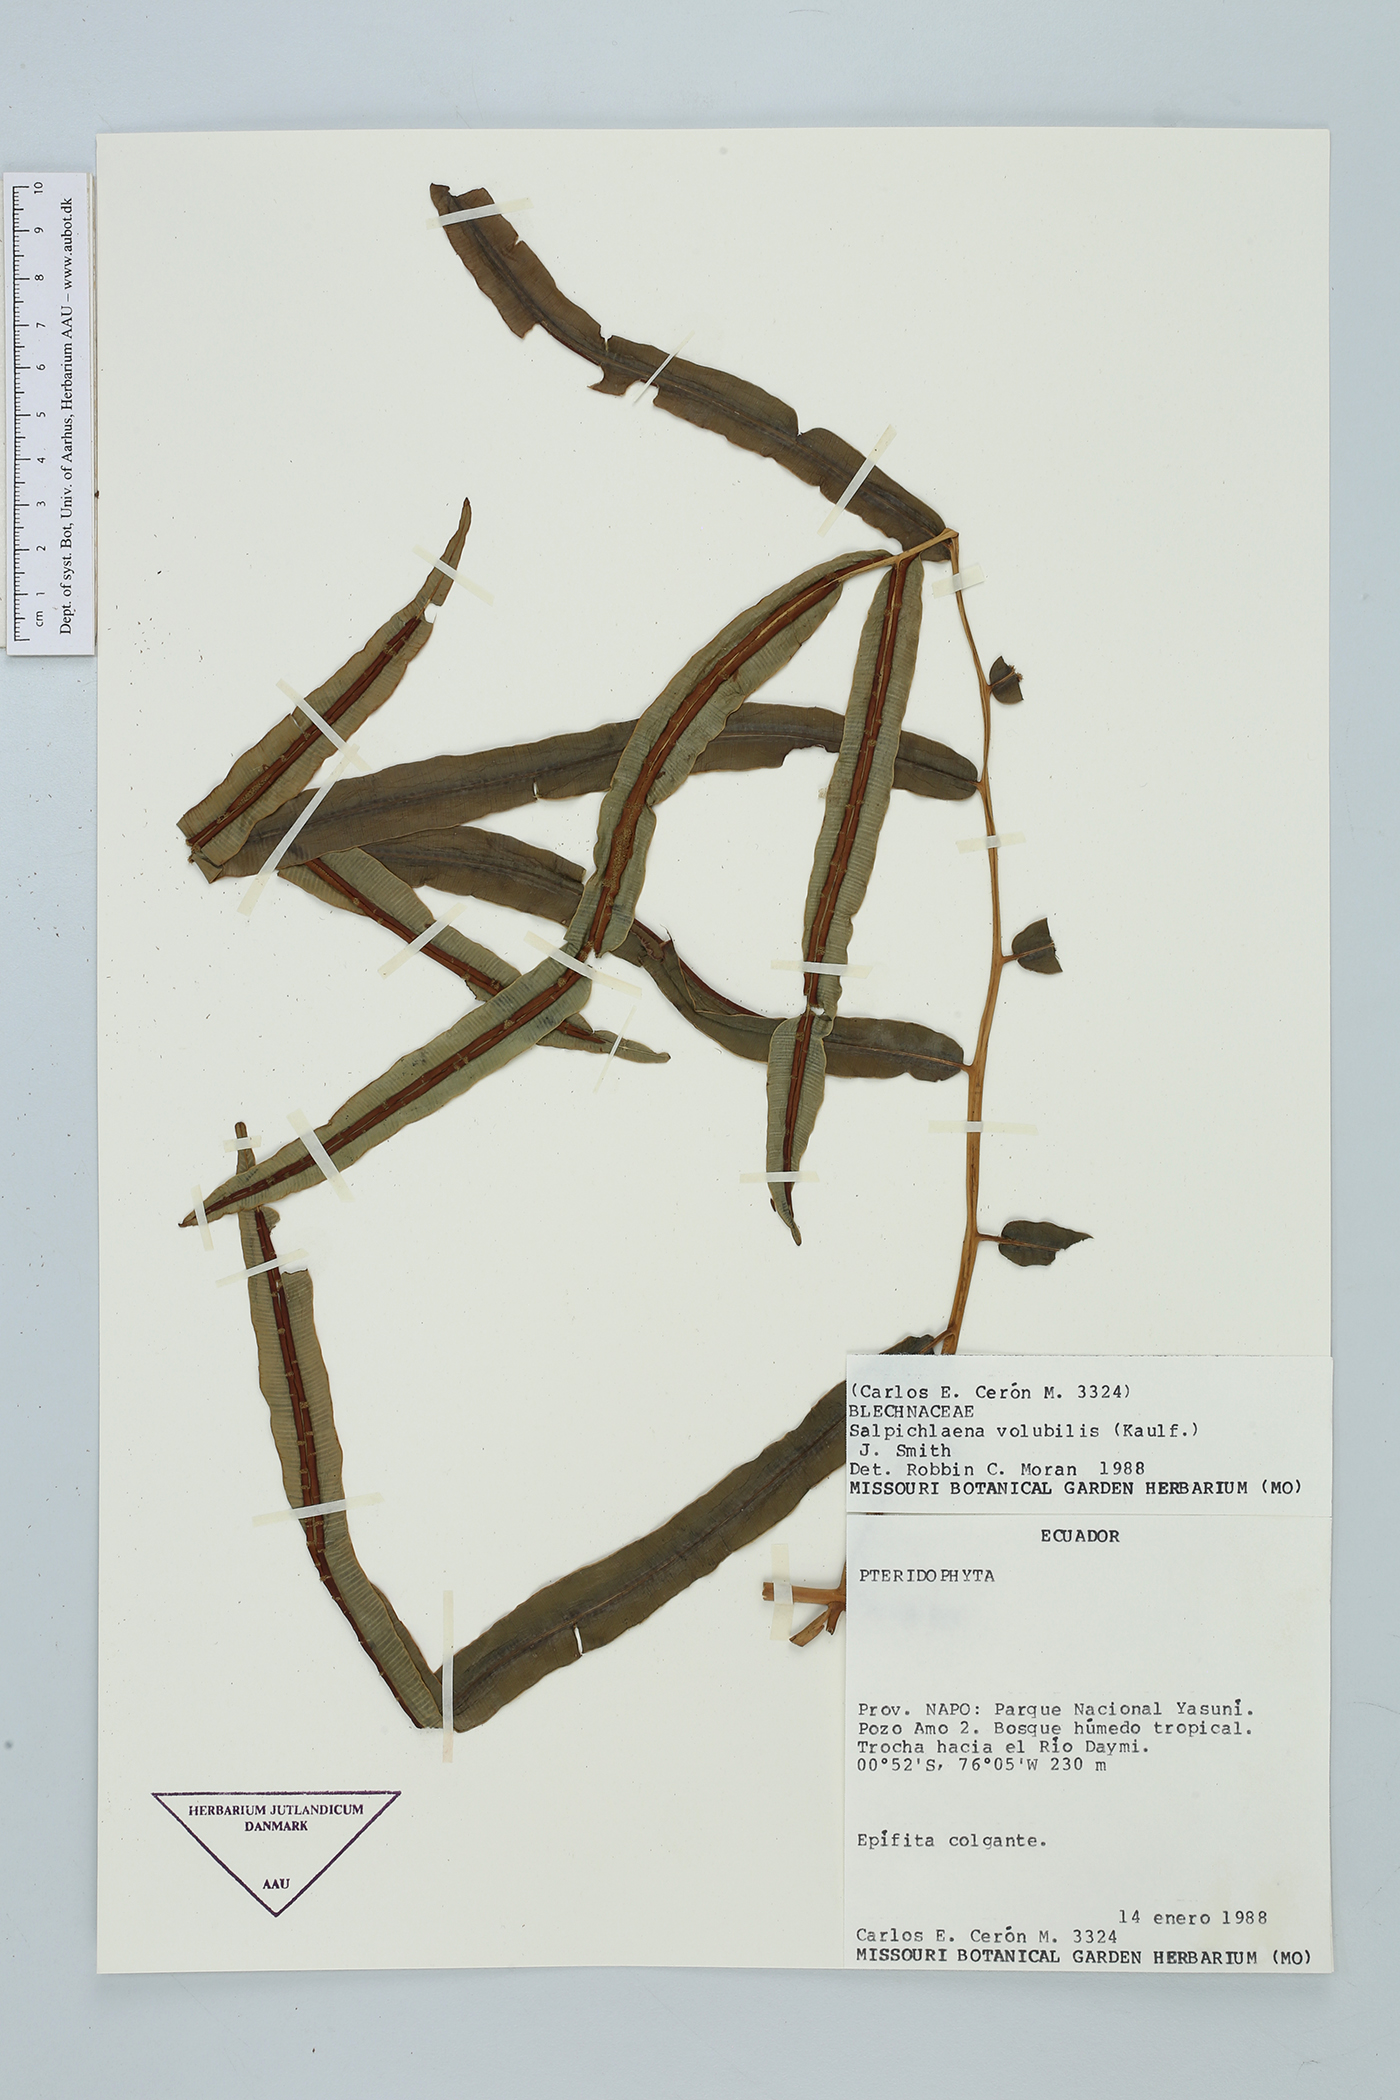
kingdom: Plantae
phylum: Tracheophyta
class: Polypodiopsida
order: Polypodiales
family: Blechnaceae
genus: Salpichlaena
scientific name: Salpichlaena volubilis
